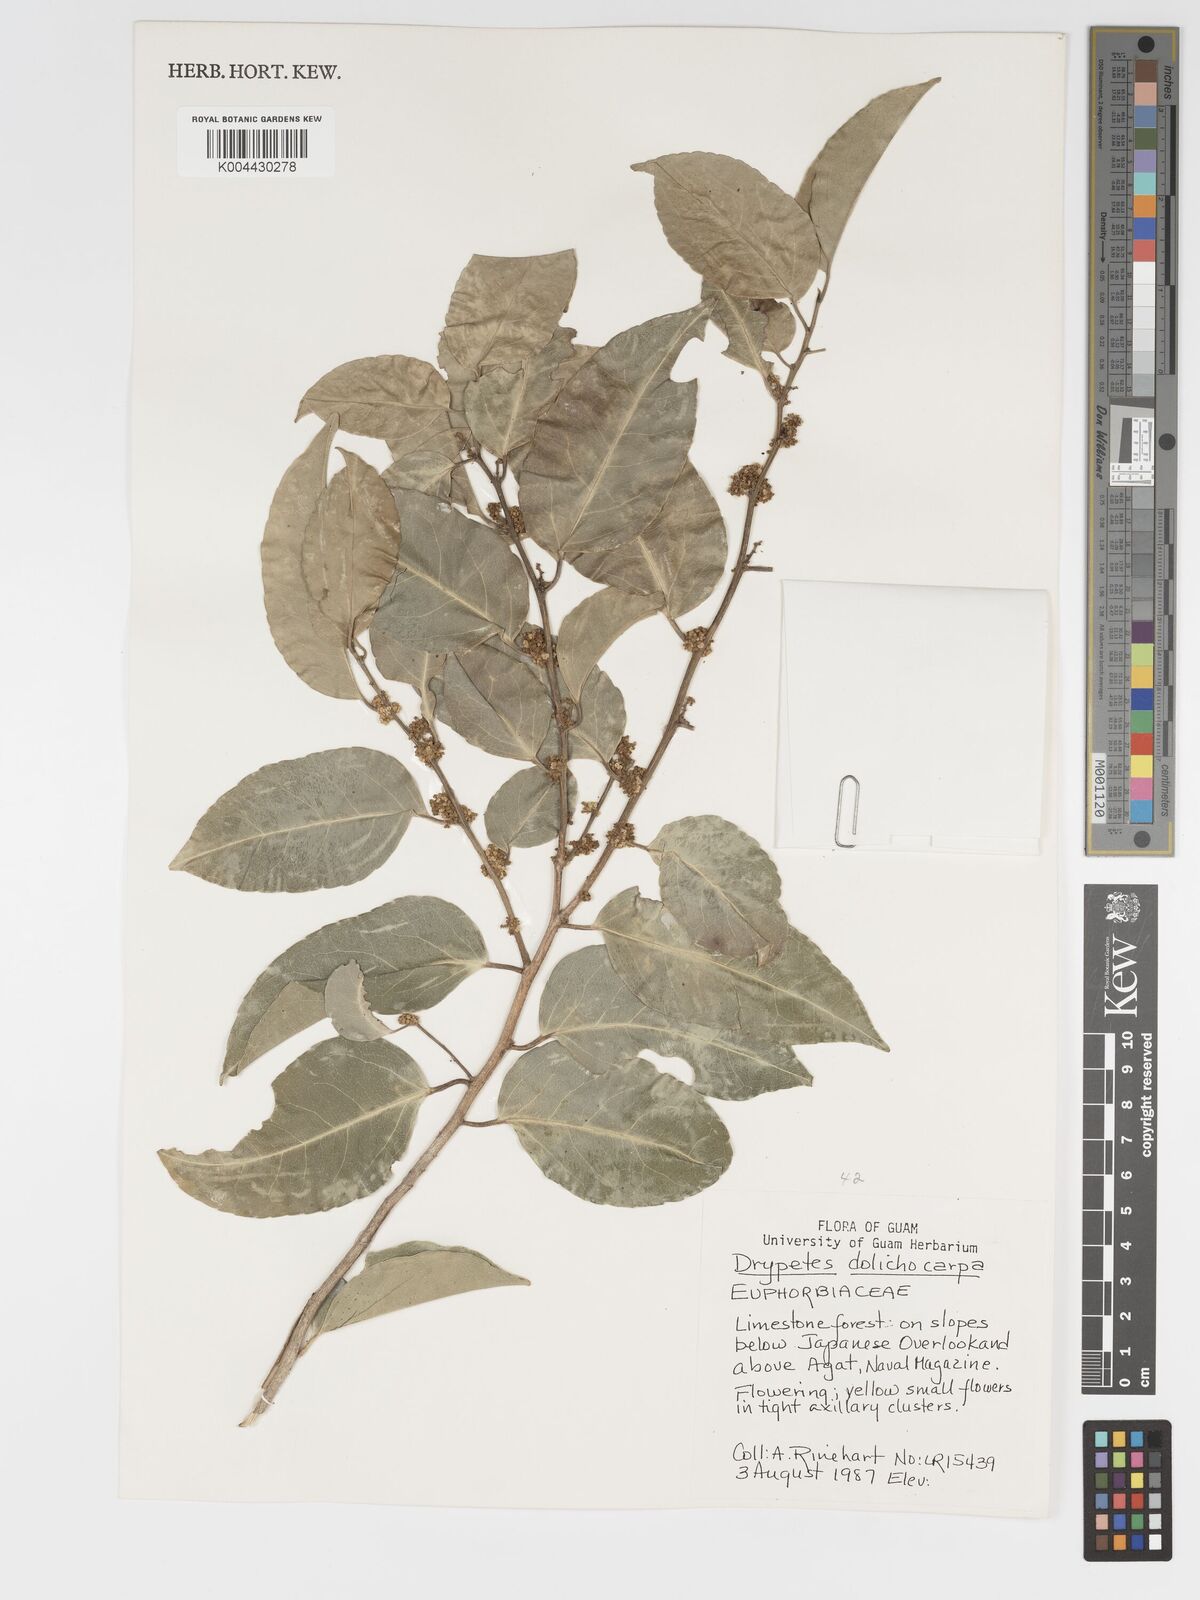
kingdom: Plantae
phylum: Tracheophyta
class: Magnoliopsida
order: Malpighiales
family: Putranjivaceae
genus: Drypetes
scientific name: Drypetes dolichocarpa
